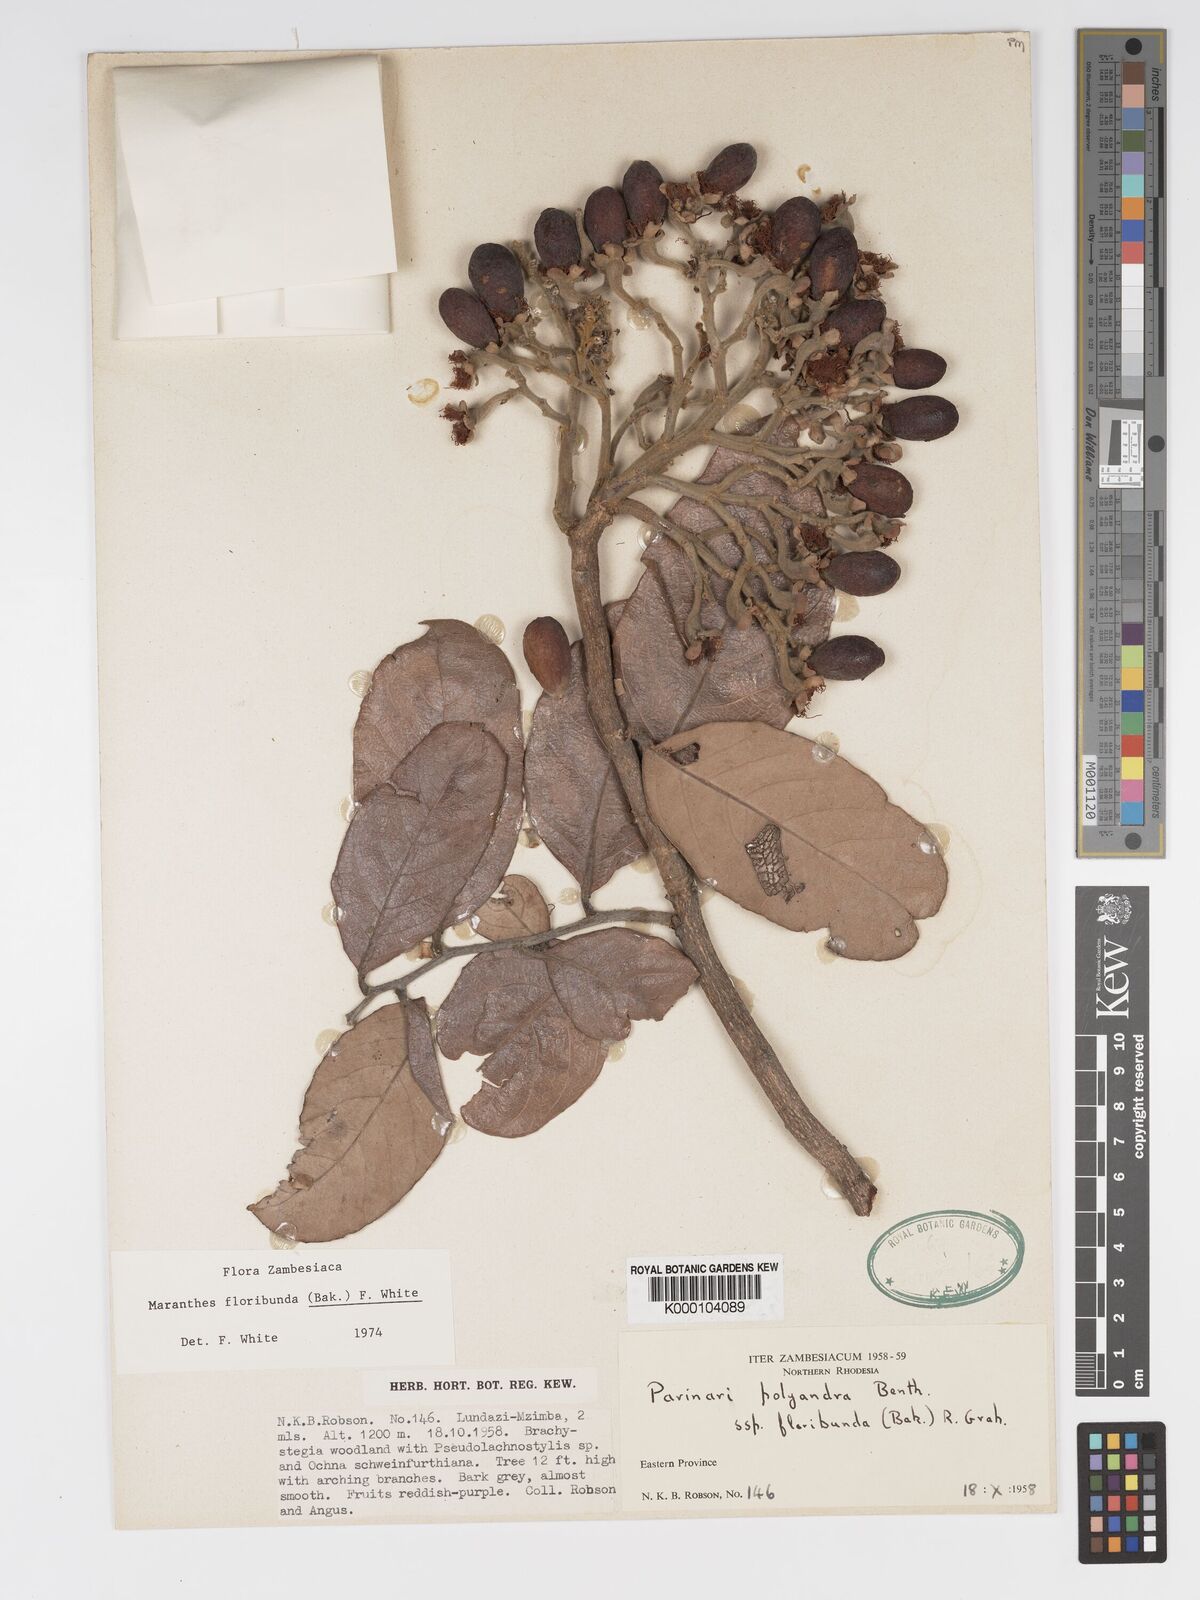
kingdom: Plantae
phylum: Tracheophyta
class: Magnoliopsida
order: Malpighiales
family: Chrysobalanaceae
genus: Maranthes
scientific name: Maranthes floribunda
